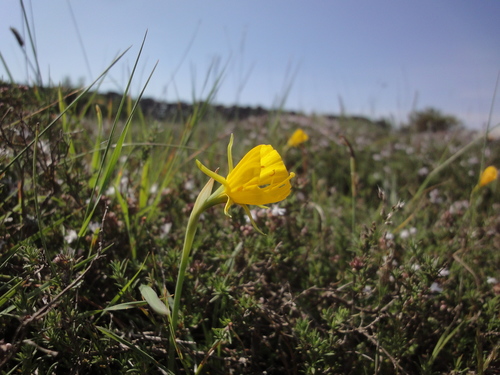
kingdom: Plantae
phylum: Tracheophyta
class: Liliopsida
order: Asparagales
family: Amaryllidaceae
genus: Narcissus
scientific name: Narcissus bulbocodium
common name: Hoop-petticoat daffodil
